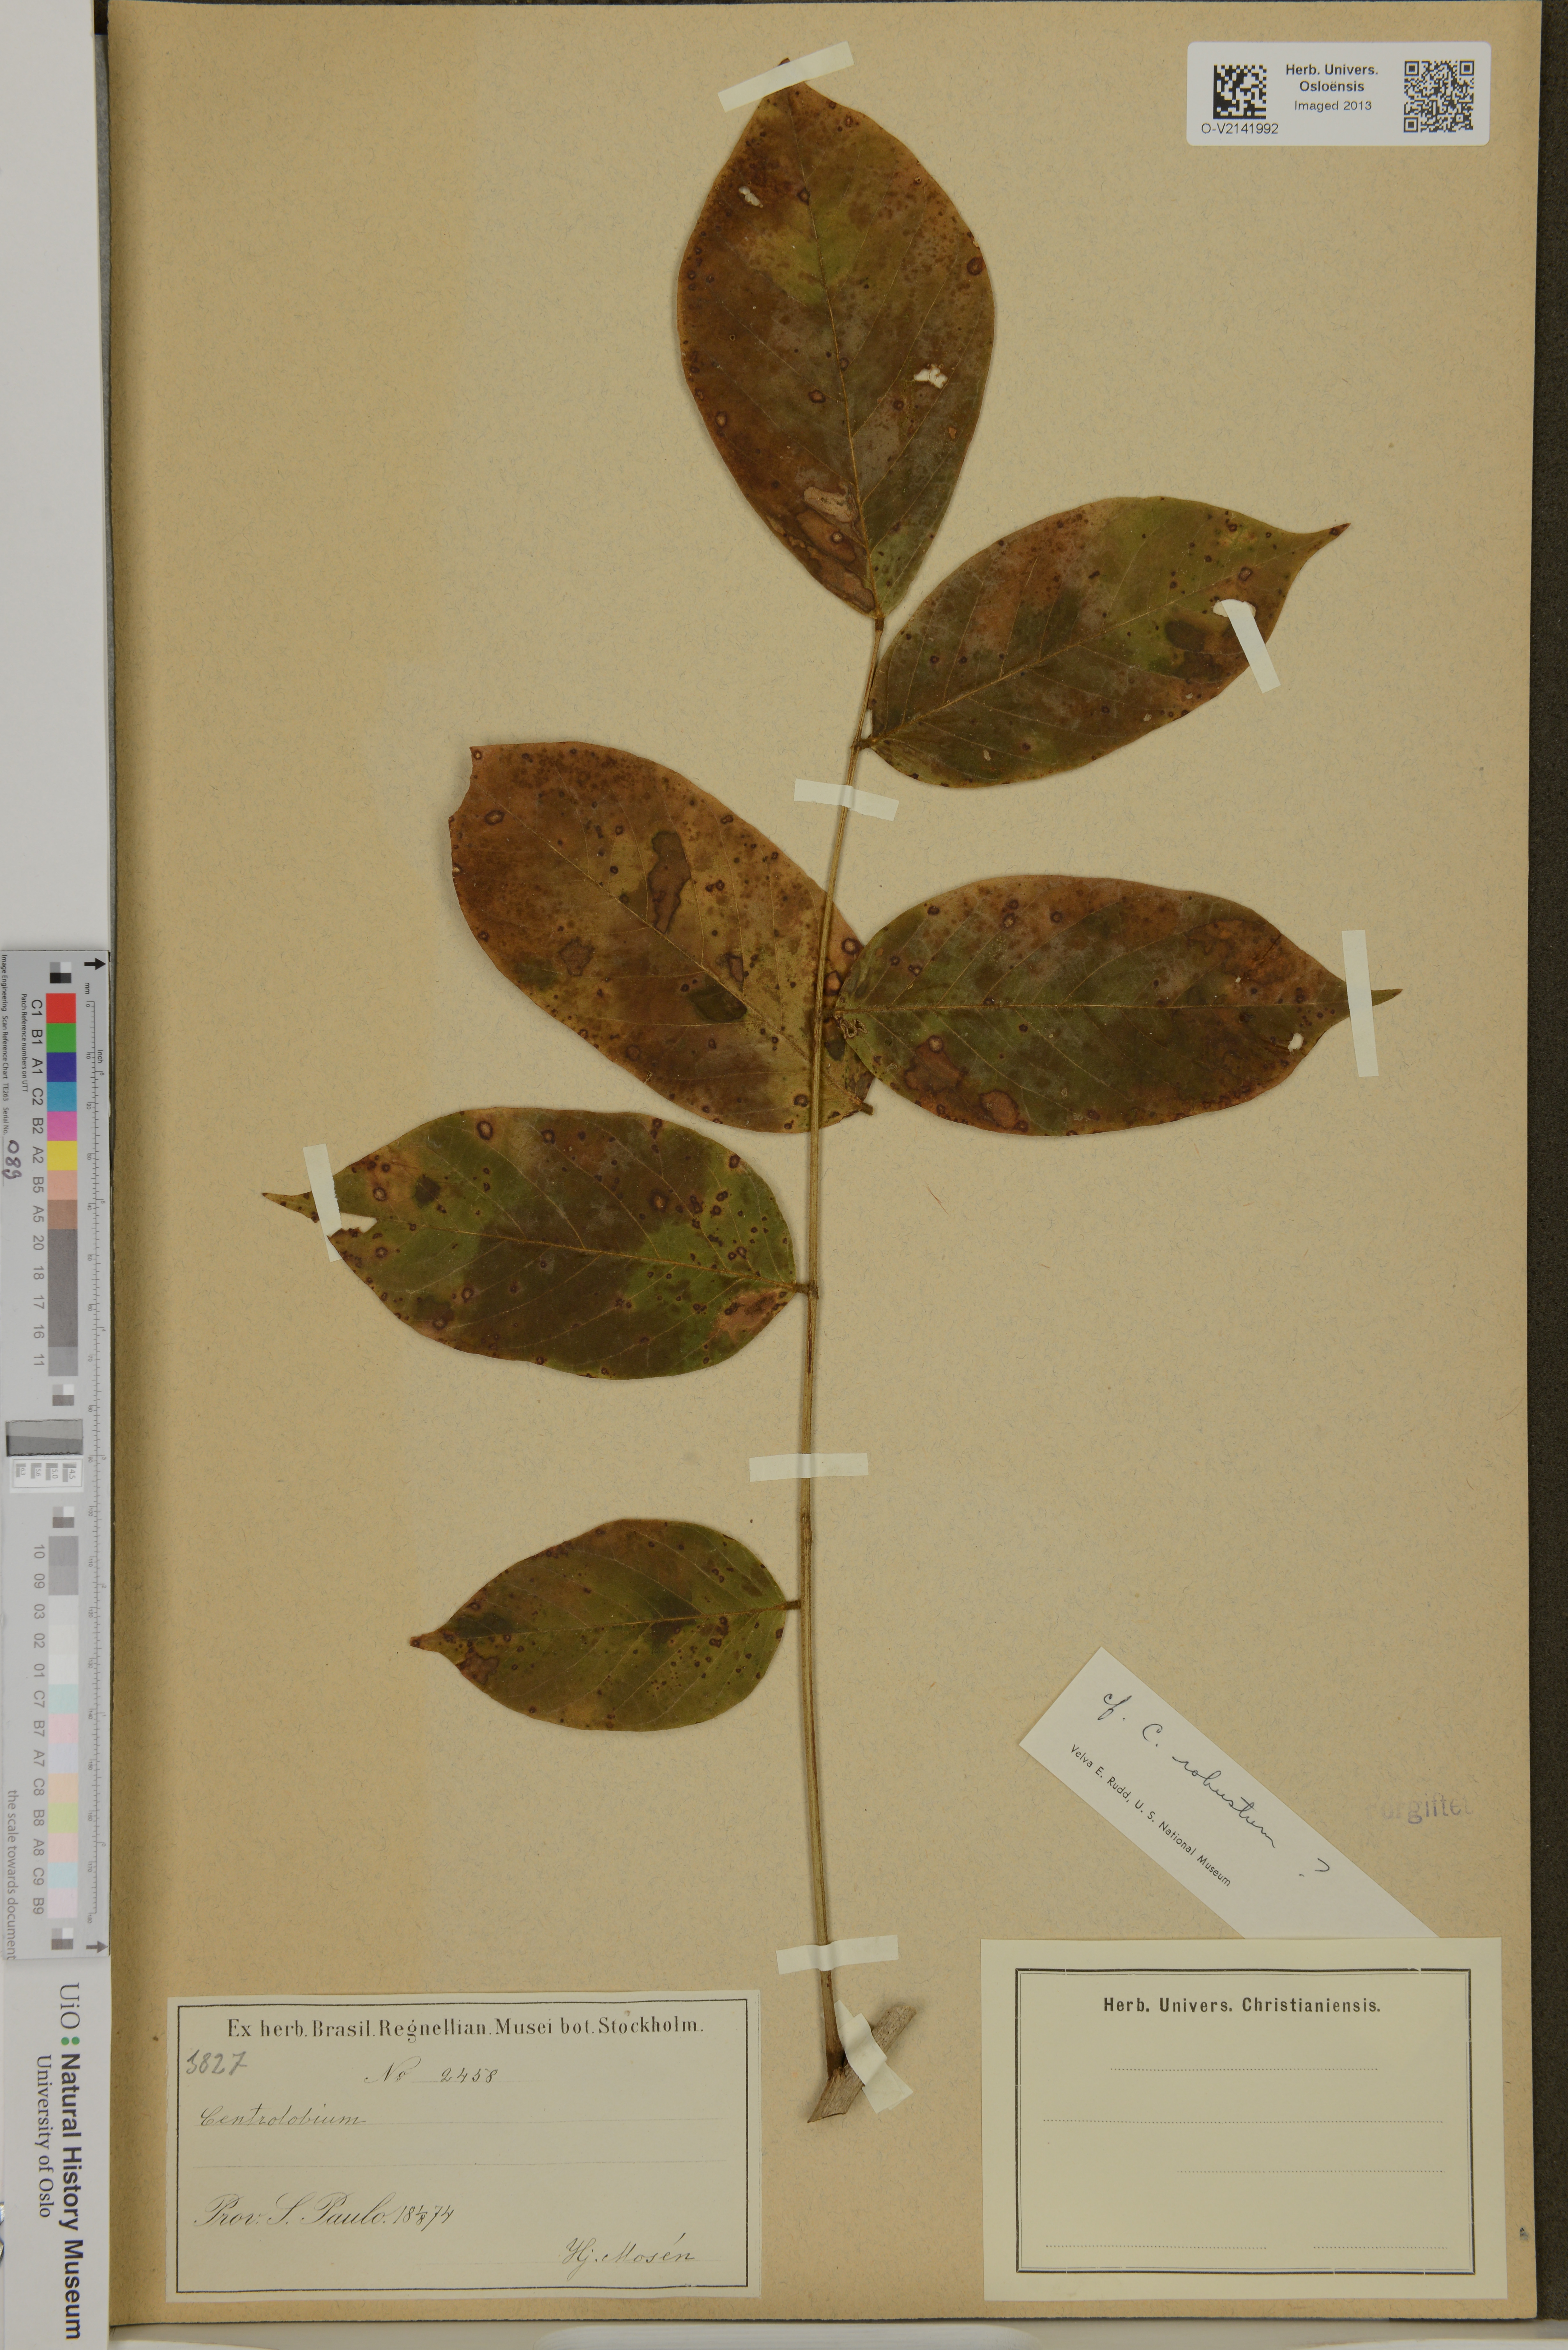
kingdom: Plantae
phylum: Tracheophyta
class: Magnoliopsida
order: Fabales
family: Fabaceae
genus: Centrolobium
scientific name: Centrolobium robustum
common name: Zebrawood
